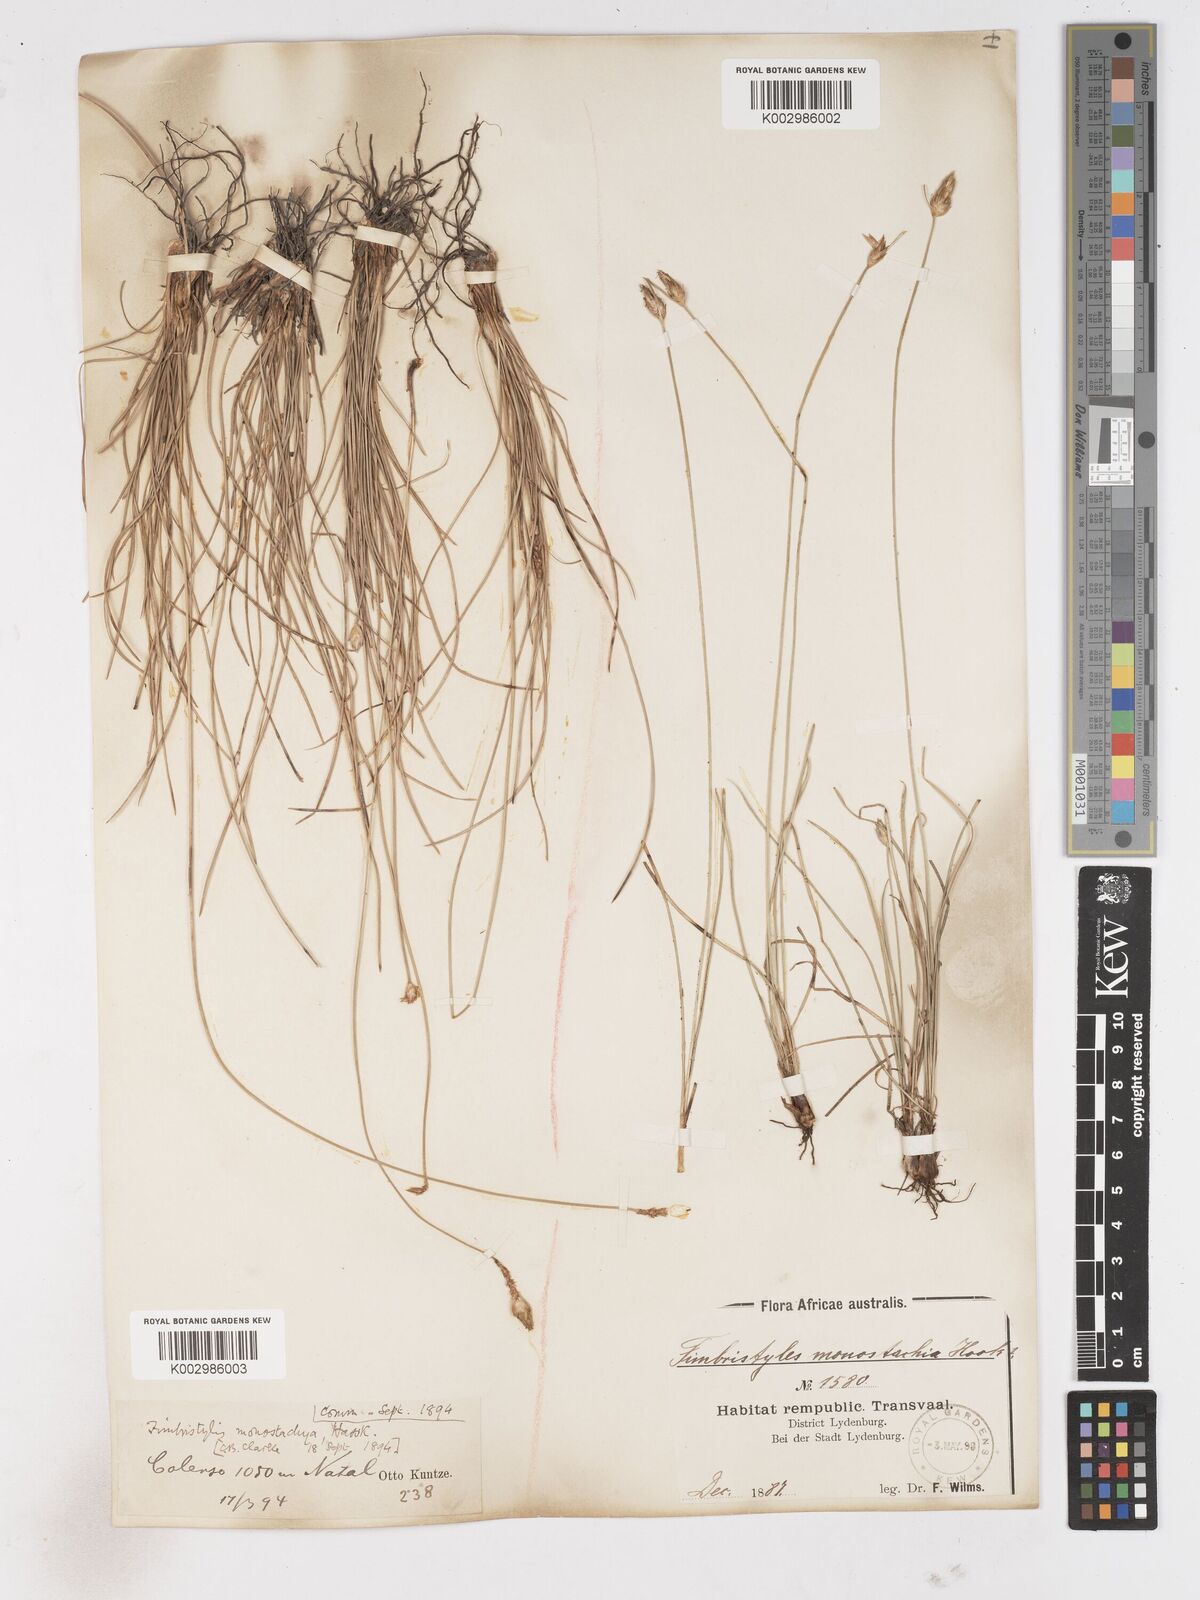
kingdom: Plantae
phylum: Tracheophyta
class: Liliopsida
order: Poales
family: Cyperaceae
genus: Abildgaardia
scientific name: Abildgaardia ovata
